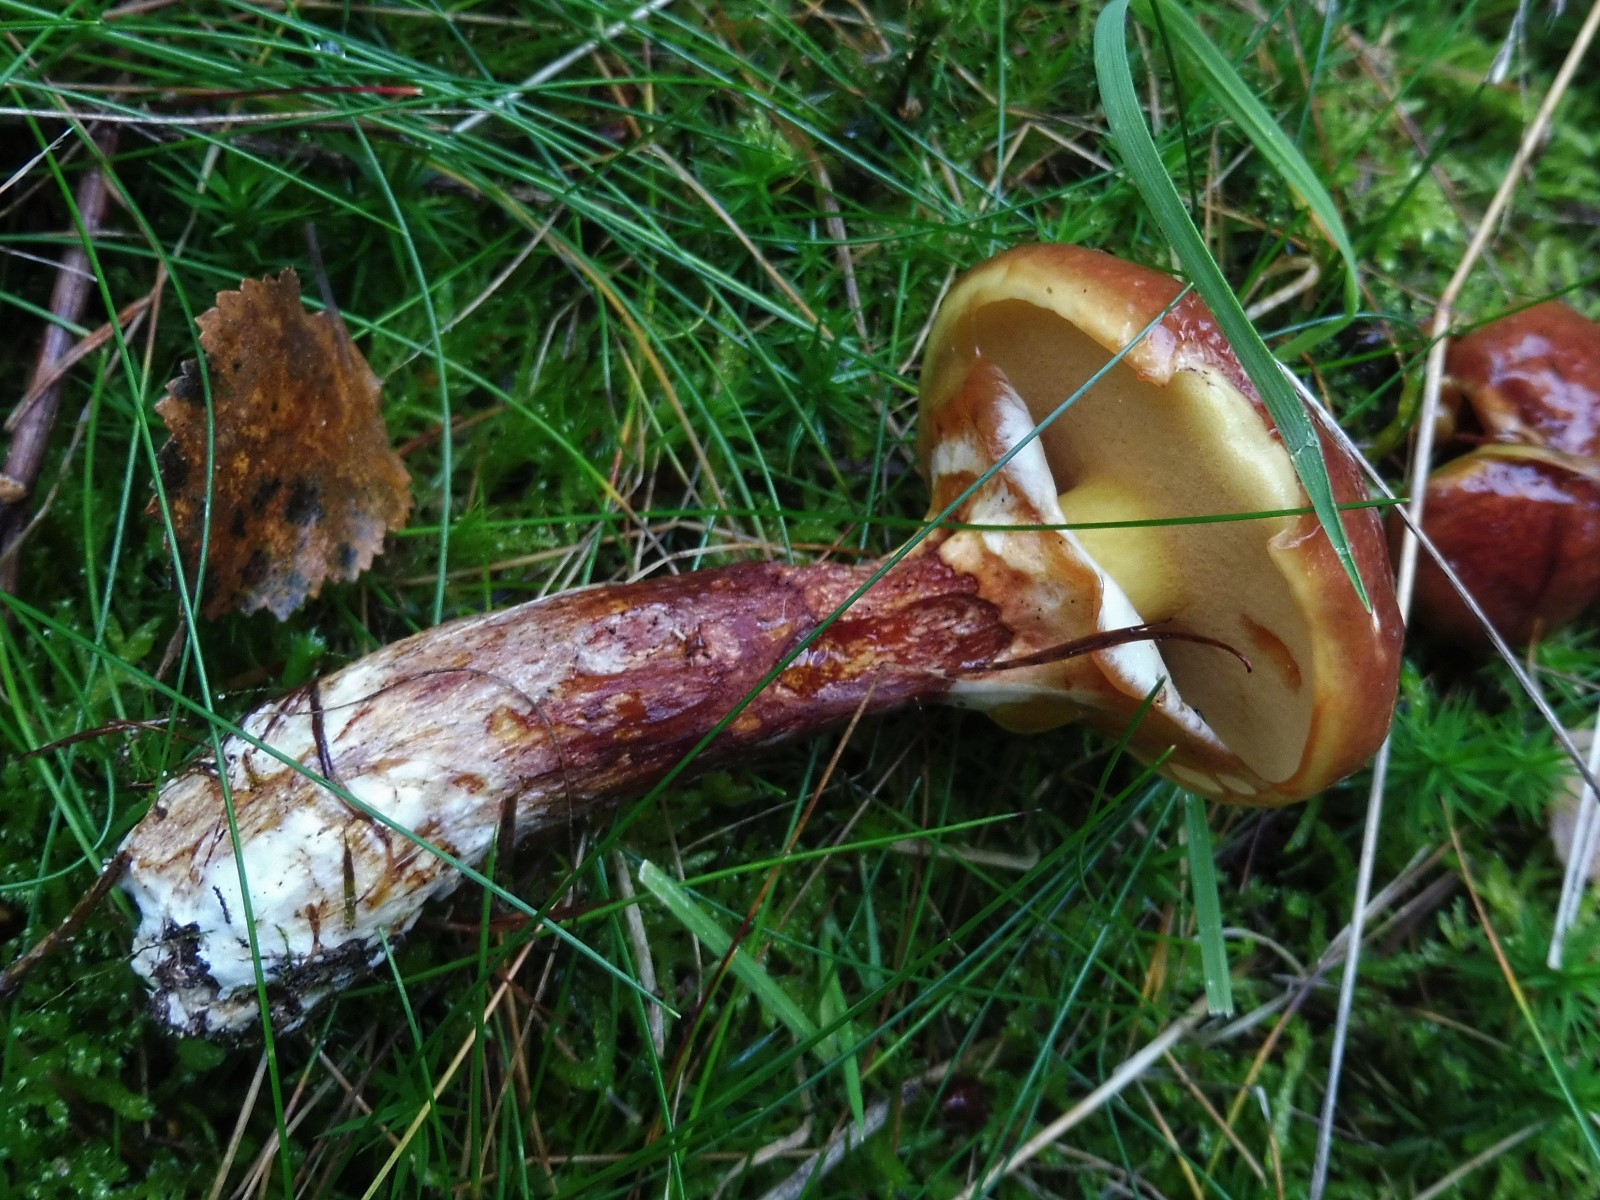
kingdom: Fungi
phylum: Basidiomycota
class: Agaricomycetes
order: Boletales
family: Suillaceae
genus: Suillus
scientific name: Suillus grevillei
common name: lærke-slimrørhat
